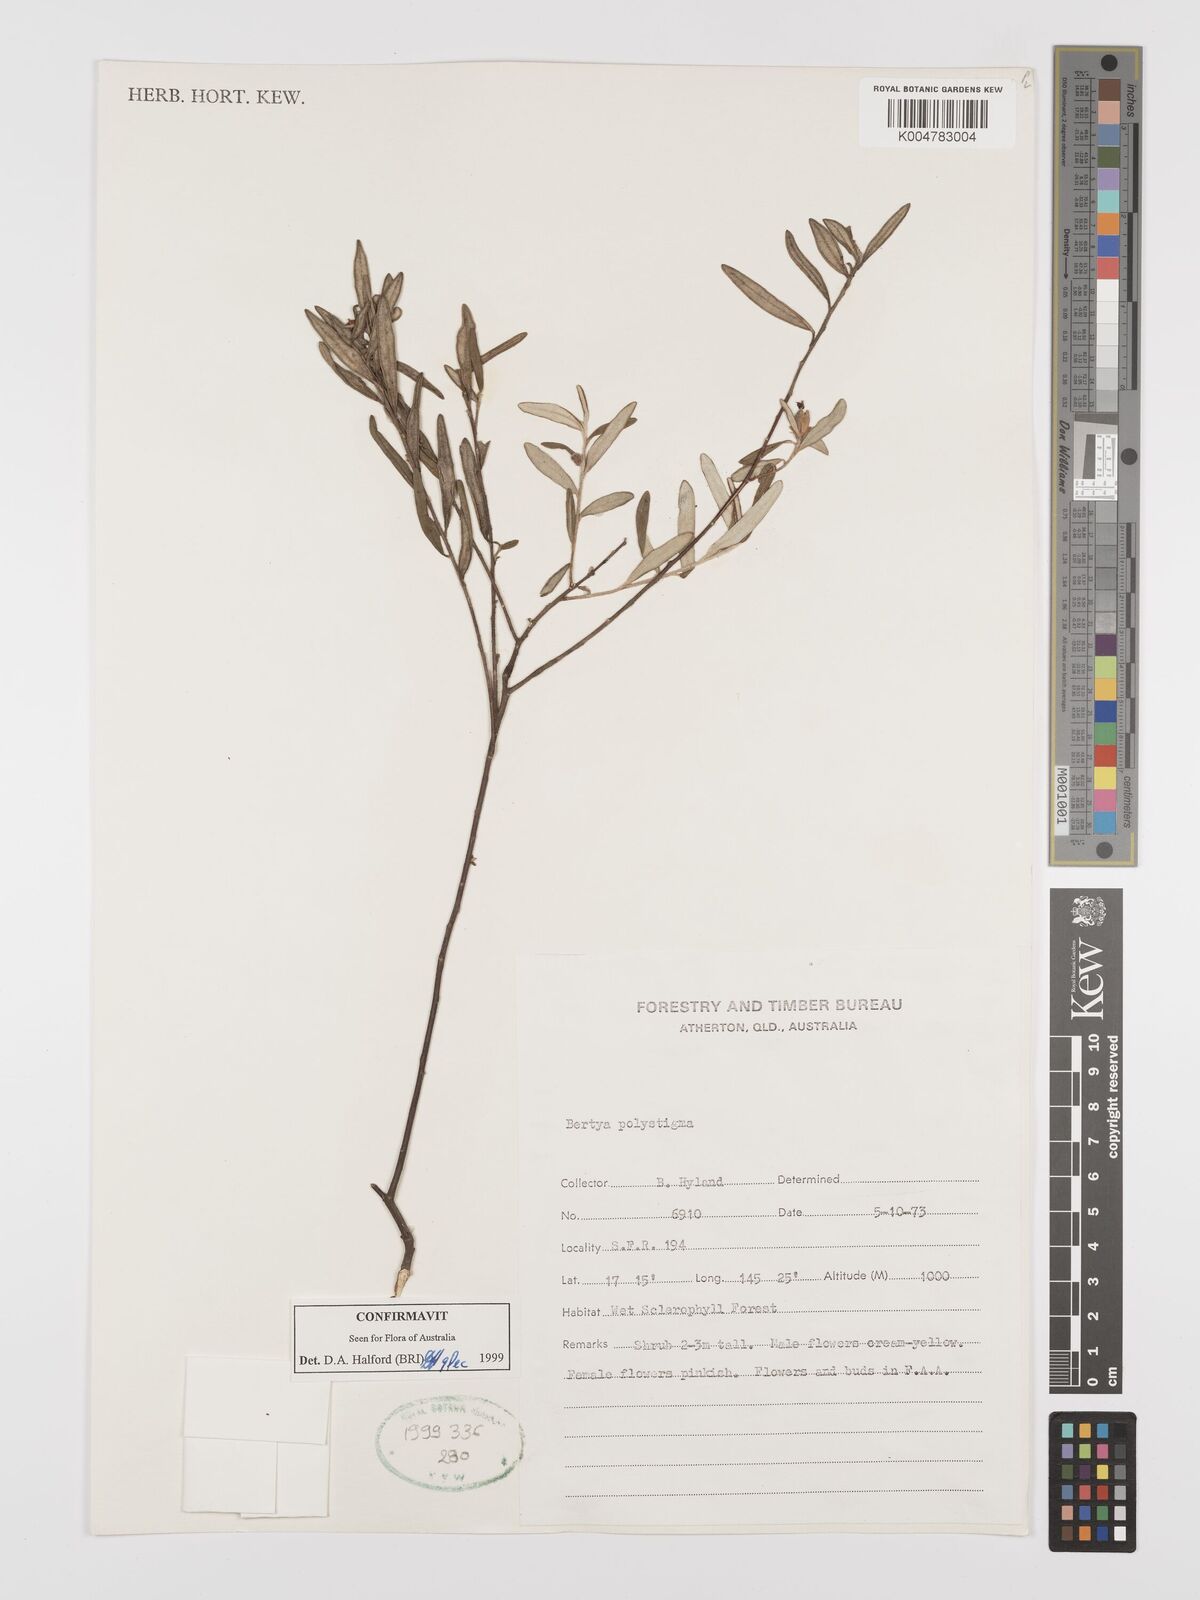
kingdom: Plantae
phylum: Tracheophyta
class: Magnoliopsida
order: Malpighiales
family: Euphorbiaceae
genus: Bertya
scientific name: Bertya polystigma
